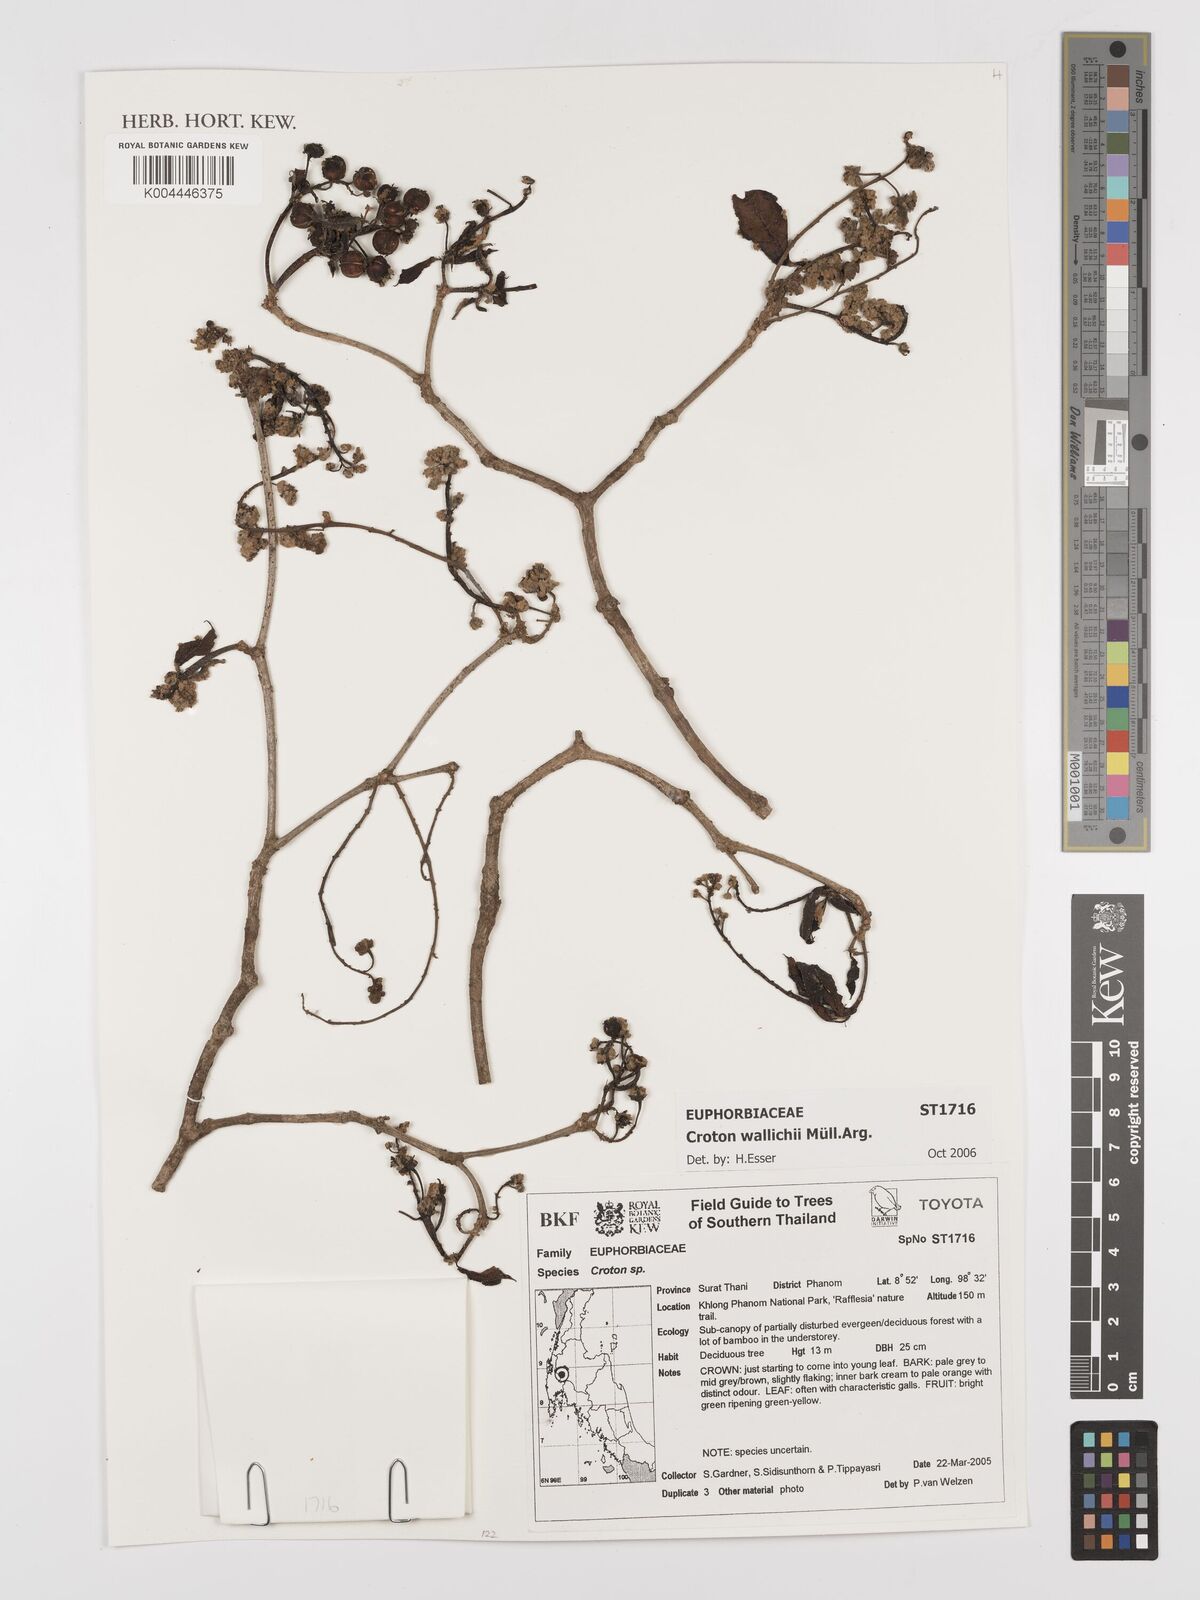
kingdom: Plantae
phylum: Tracheophyta
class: Magnoliopsida
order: Malpighiales
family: Euphorbiaceae
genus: Croton
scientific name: Croton wallichii
